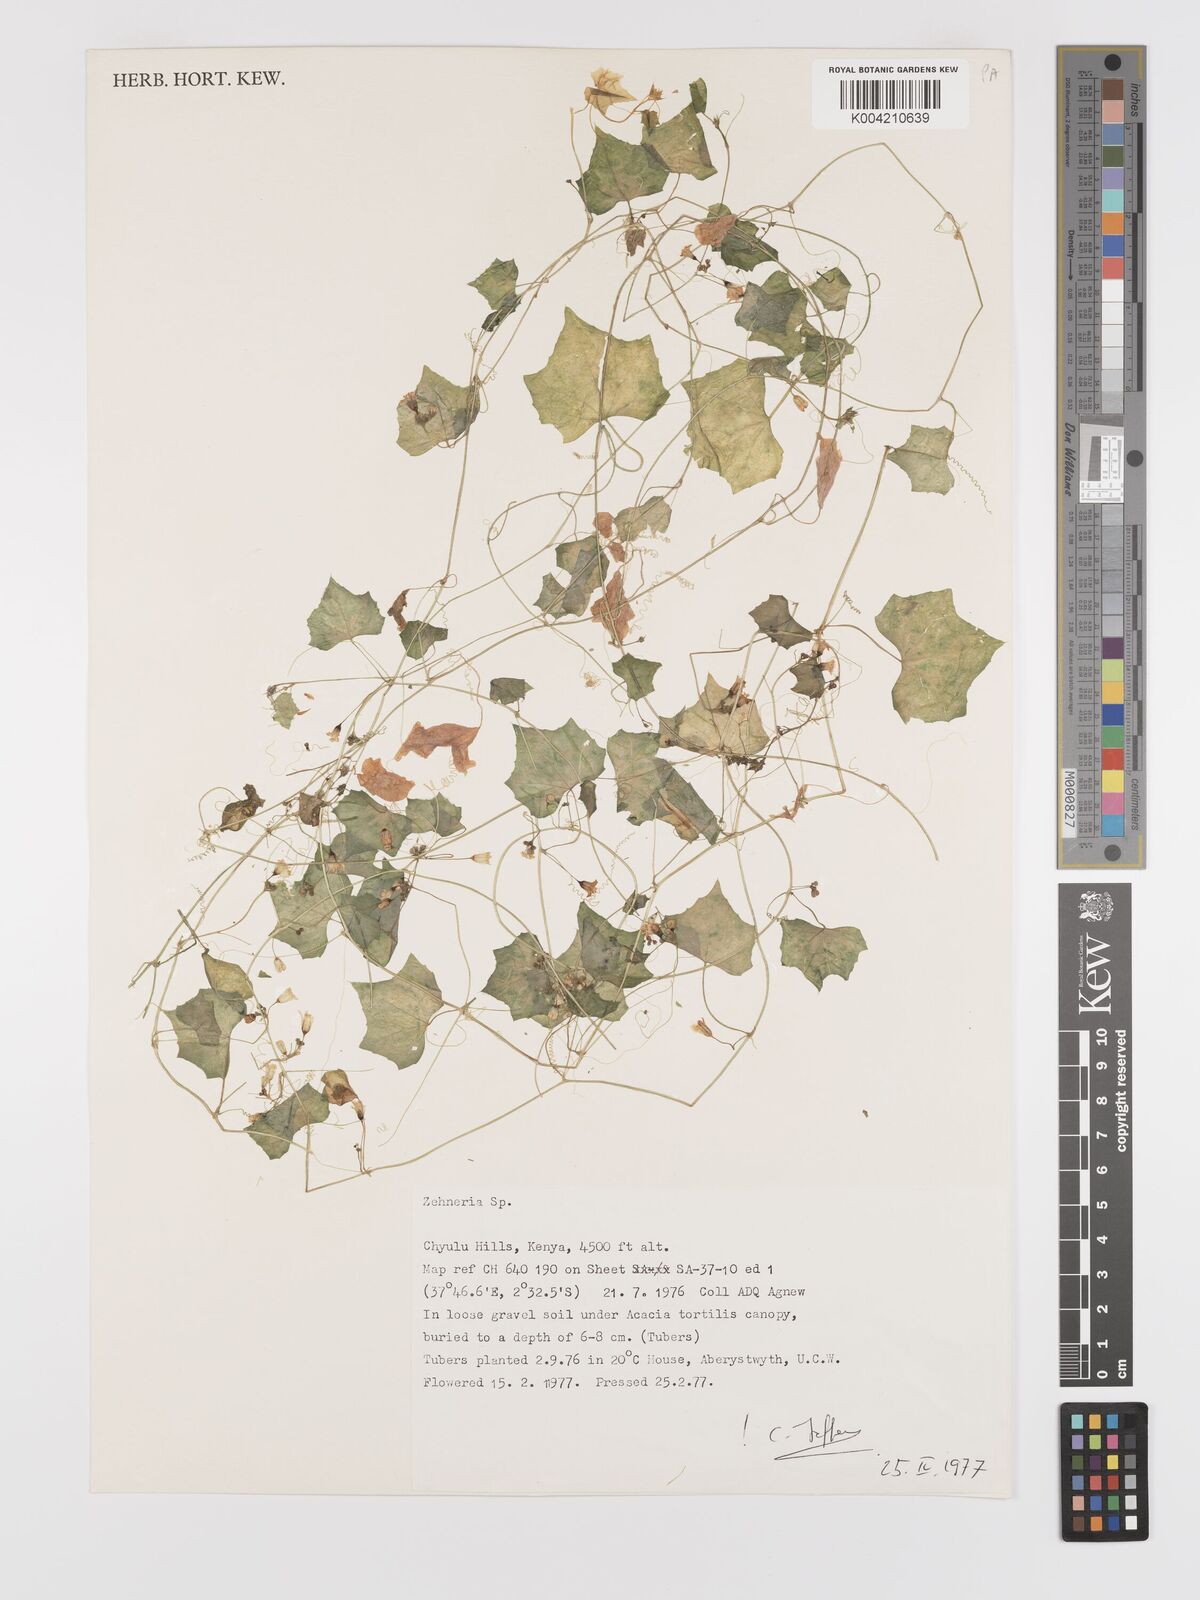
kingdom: Plantae
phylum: Tracheophyta
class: Magnoliopsida
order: Cucurbitales
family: Cucurbitaceae
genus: Zehneria
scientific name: Zehneria
